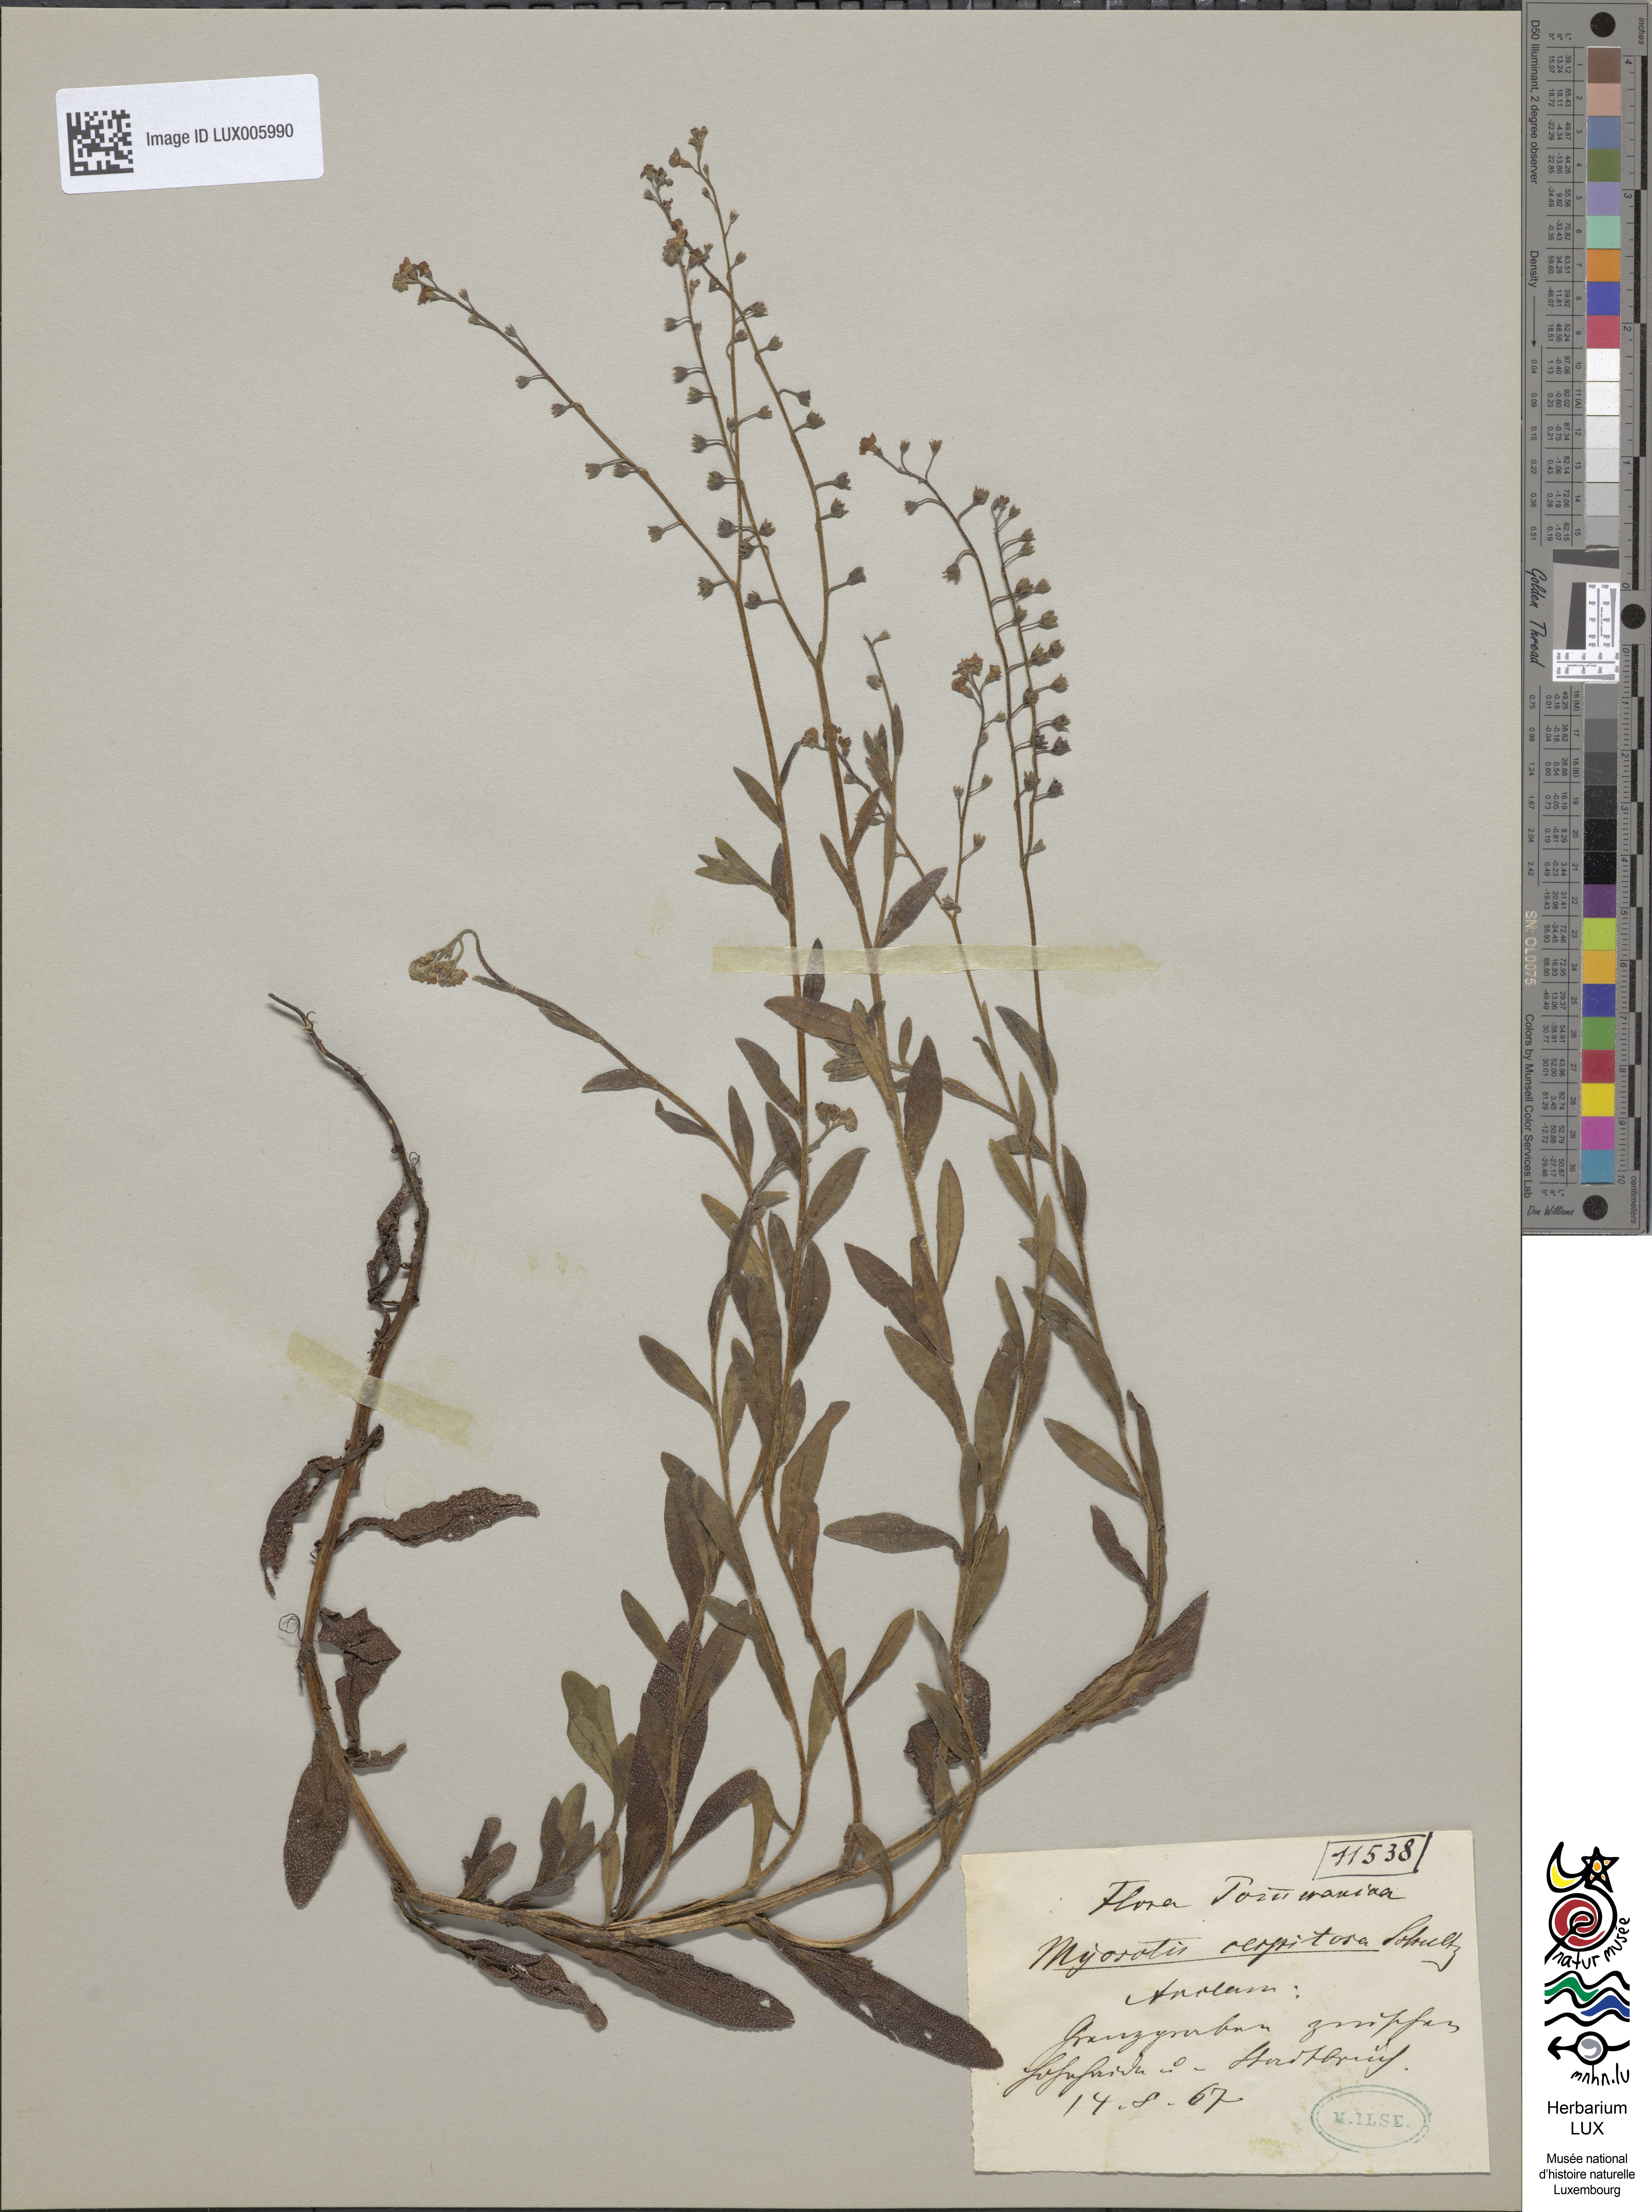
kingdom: Plantae
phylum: Tracheophyta
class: Magnoliopsida
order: Boraginales
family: Boraginaceae
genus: Myosotis
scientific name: Myosotis laxa
